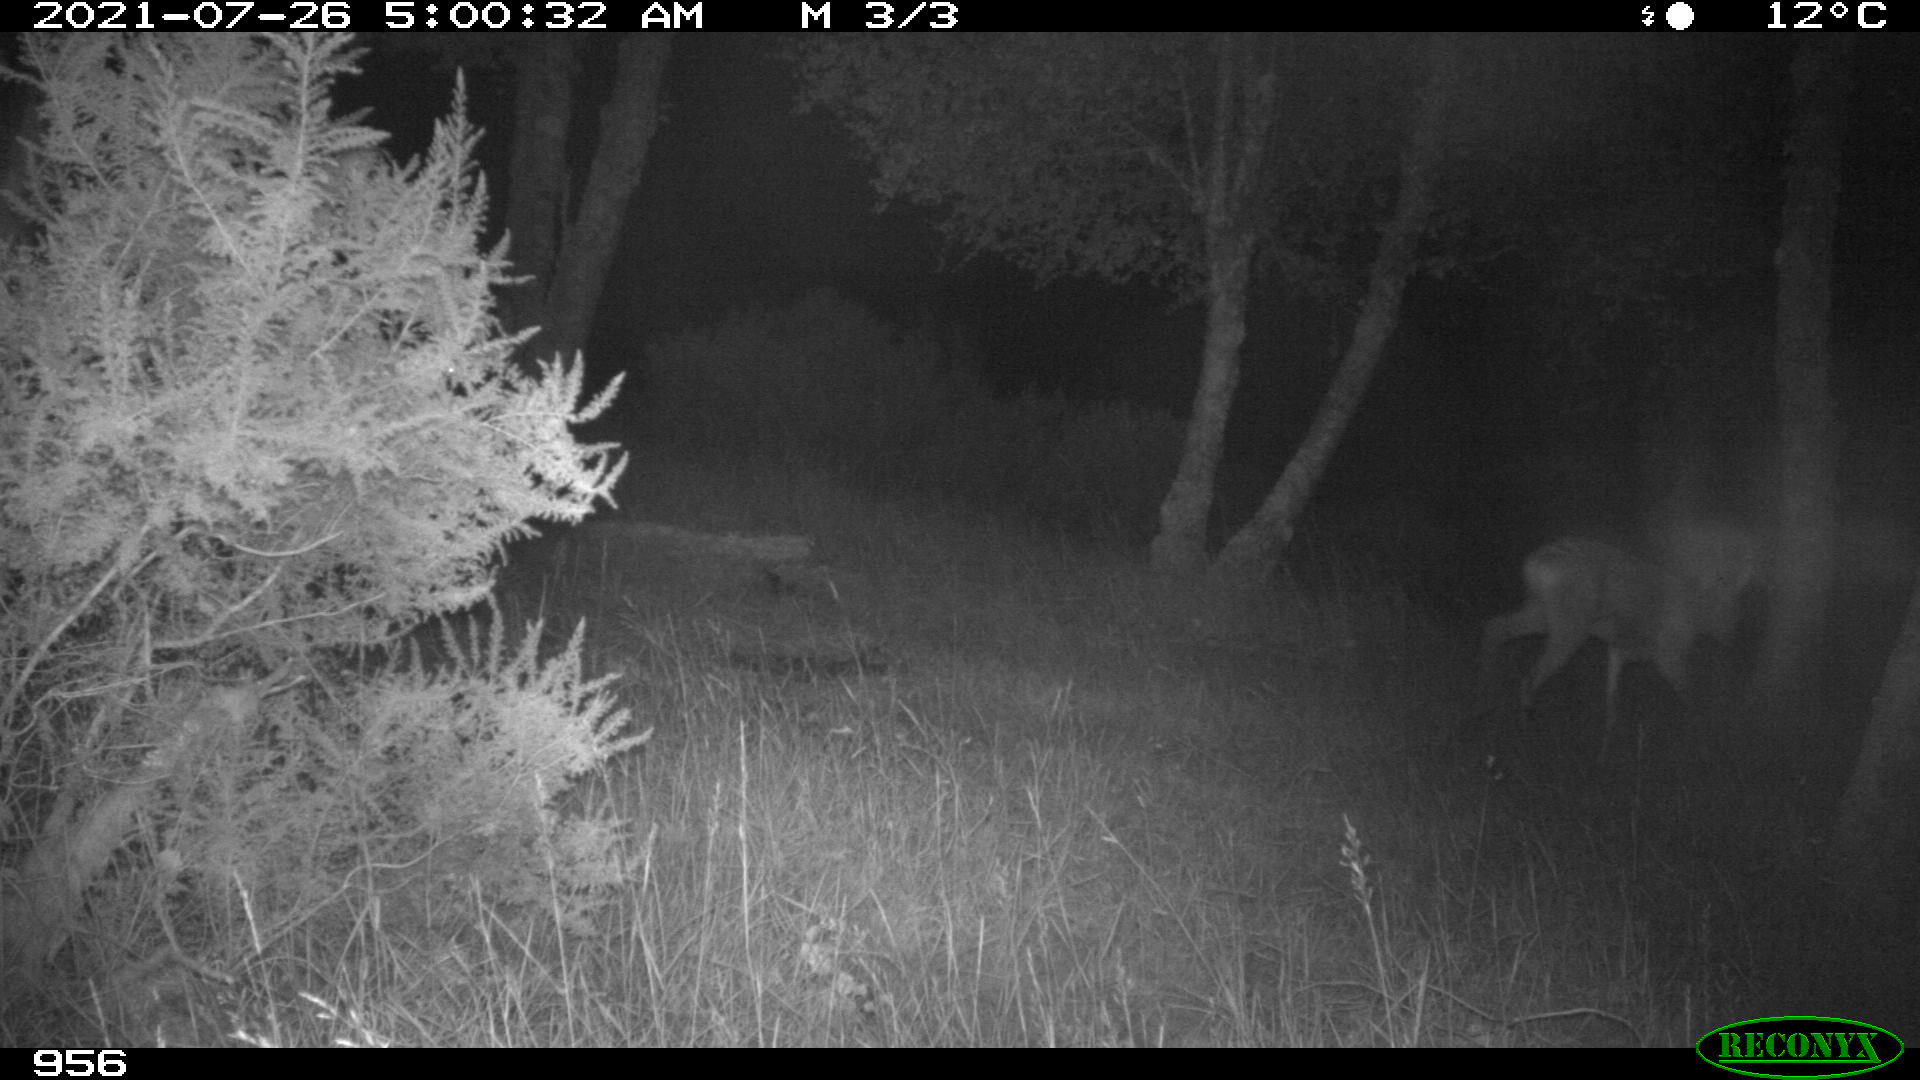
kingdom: Animalia
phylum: Chordata
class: Mammalia
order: Artiodactyla
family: Cervidae
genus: Capreolus
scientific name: Capreolus capreolus
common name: Western roe deer
